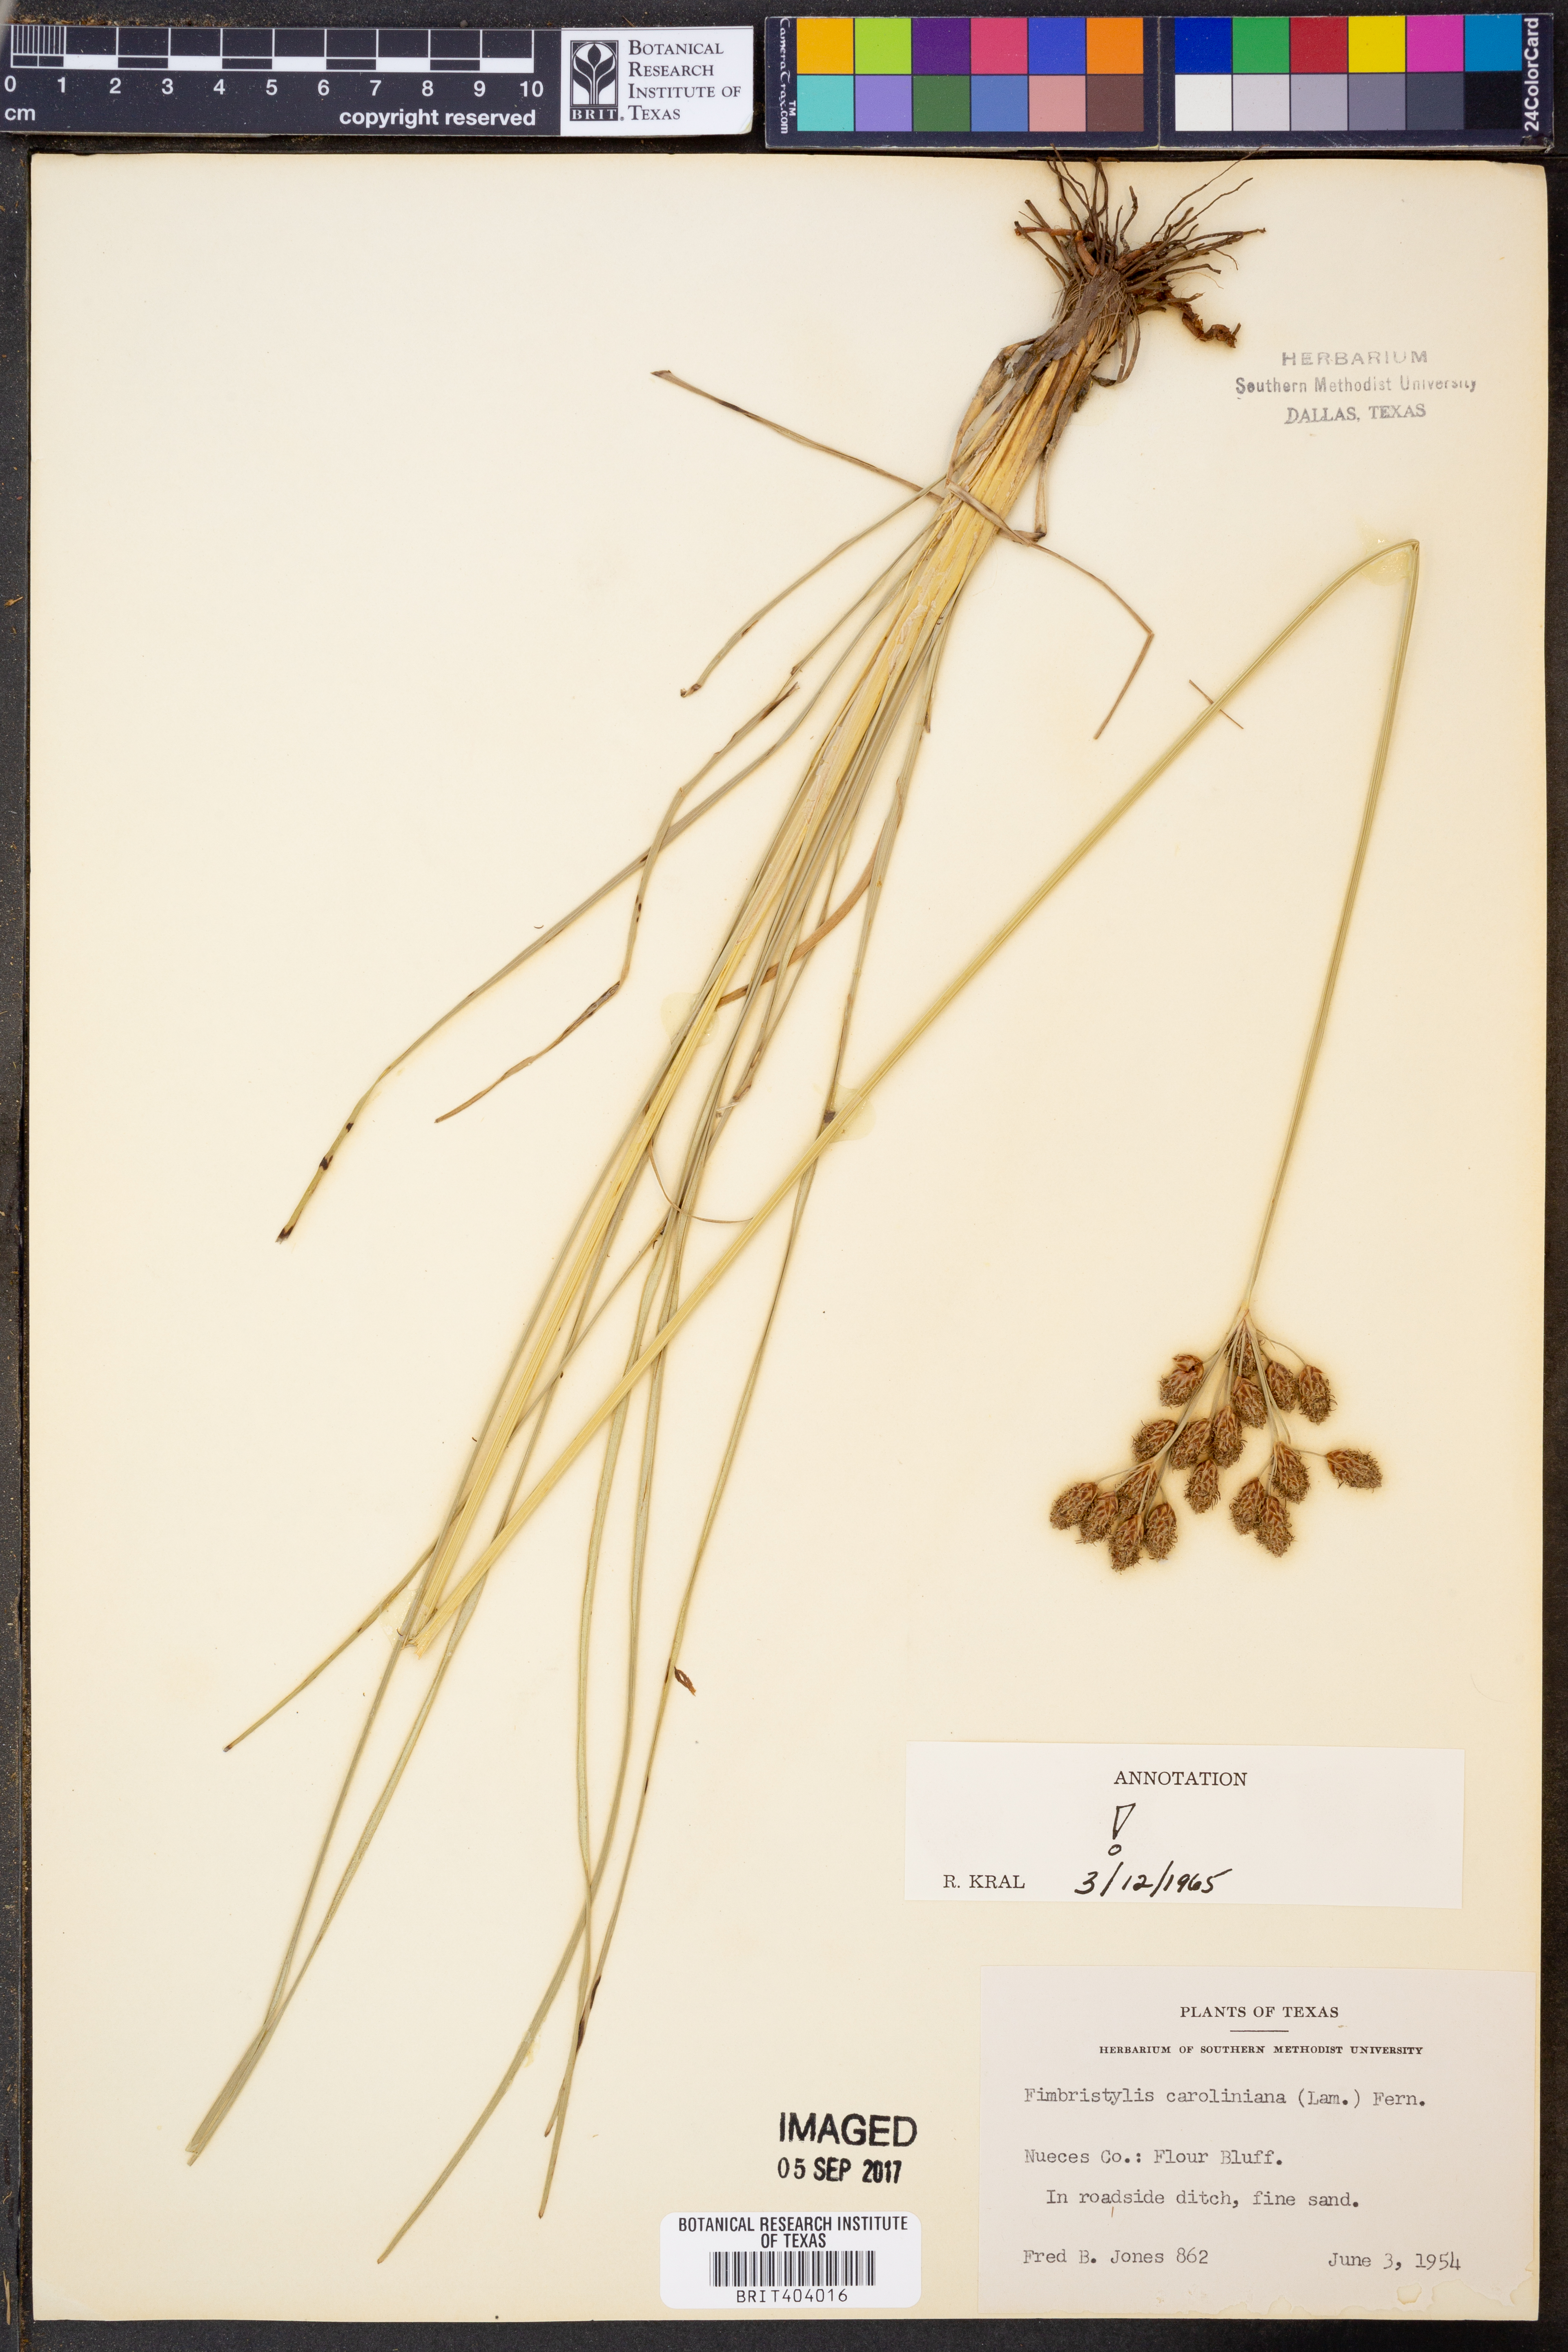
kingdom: Plantae
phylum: Tracheophyta
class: Liliopsida
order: Poales
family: Cyperaceae
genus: Fimbristylis
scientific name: Fimbristylis caroliniana
